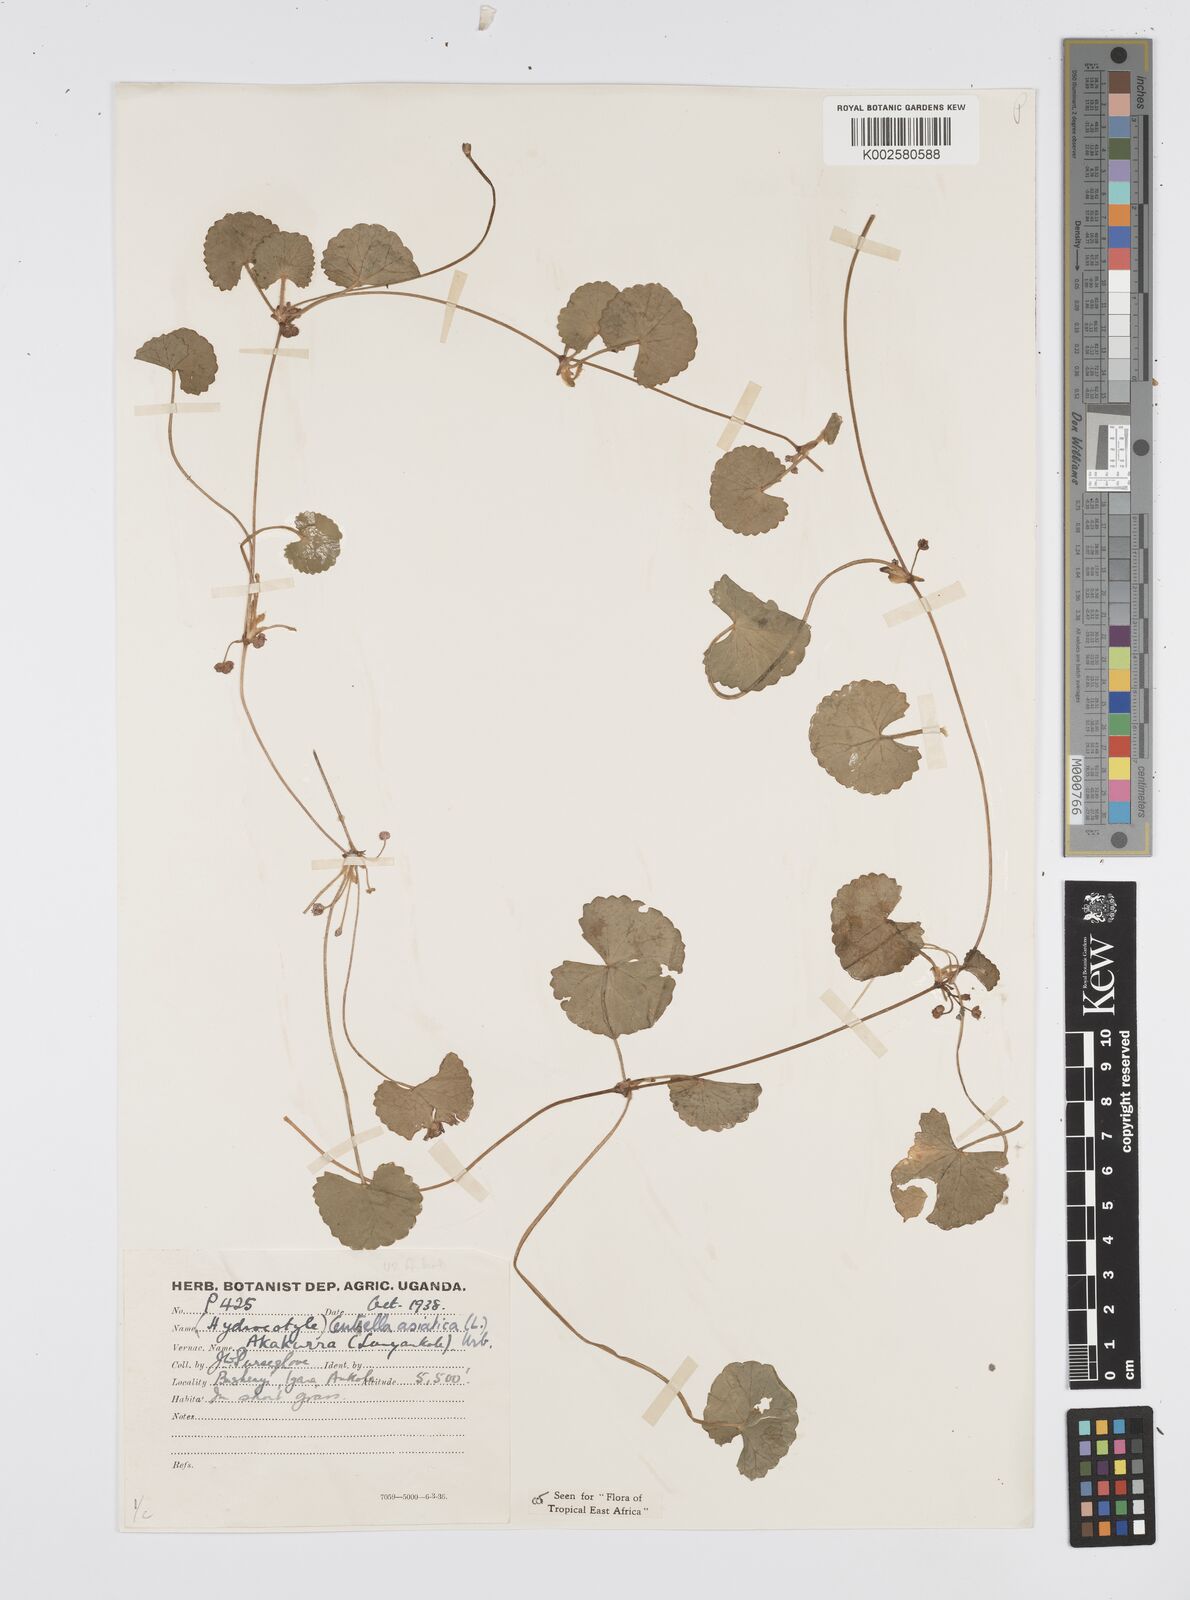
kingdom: Plantae
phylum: Tracheophyta
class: Magnoliopsida
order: Apiales
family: Apiaceae
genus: Centella
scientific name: Centella asiatica
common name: Spadeleaf
